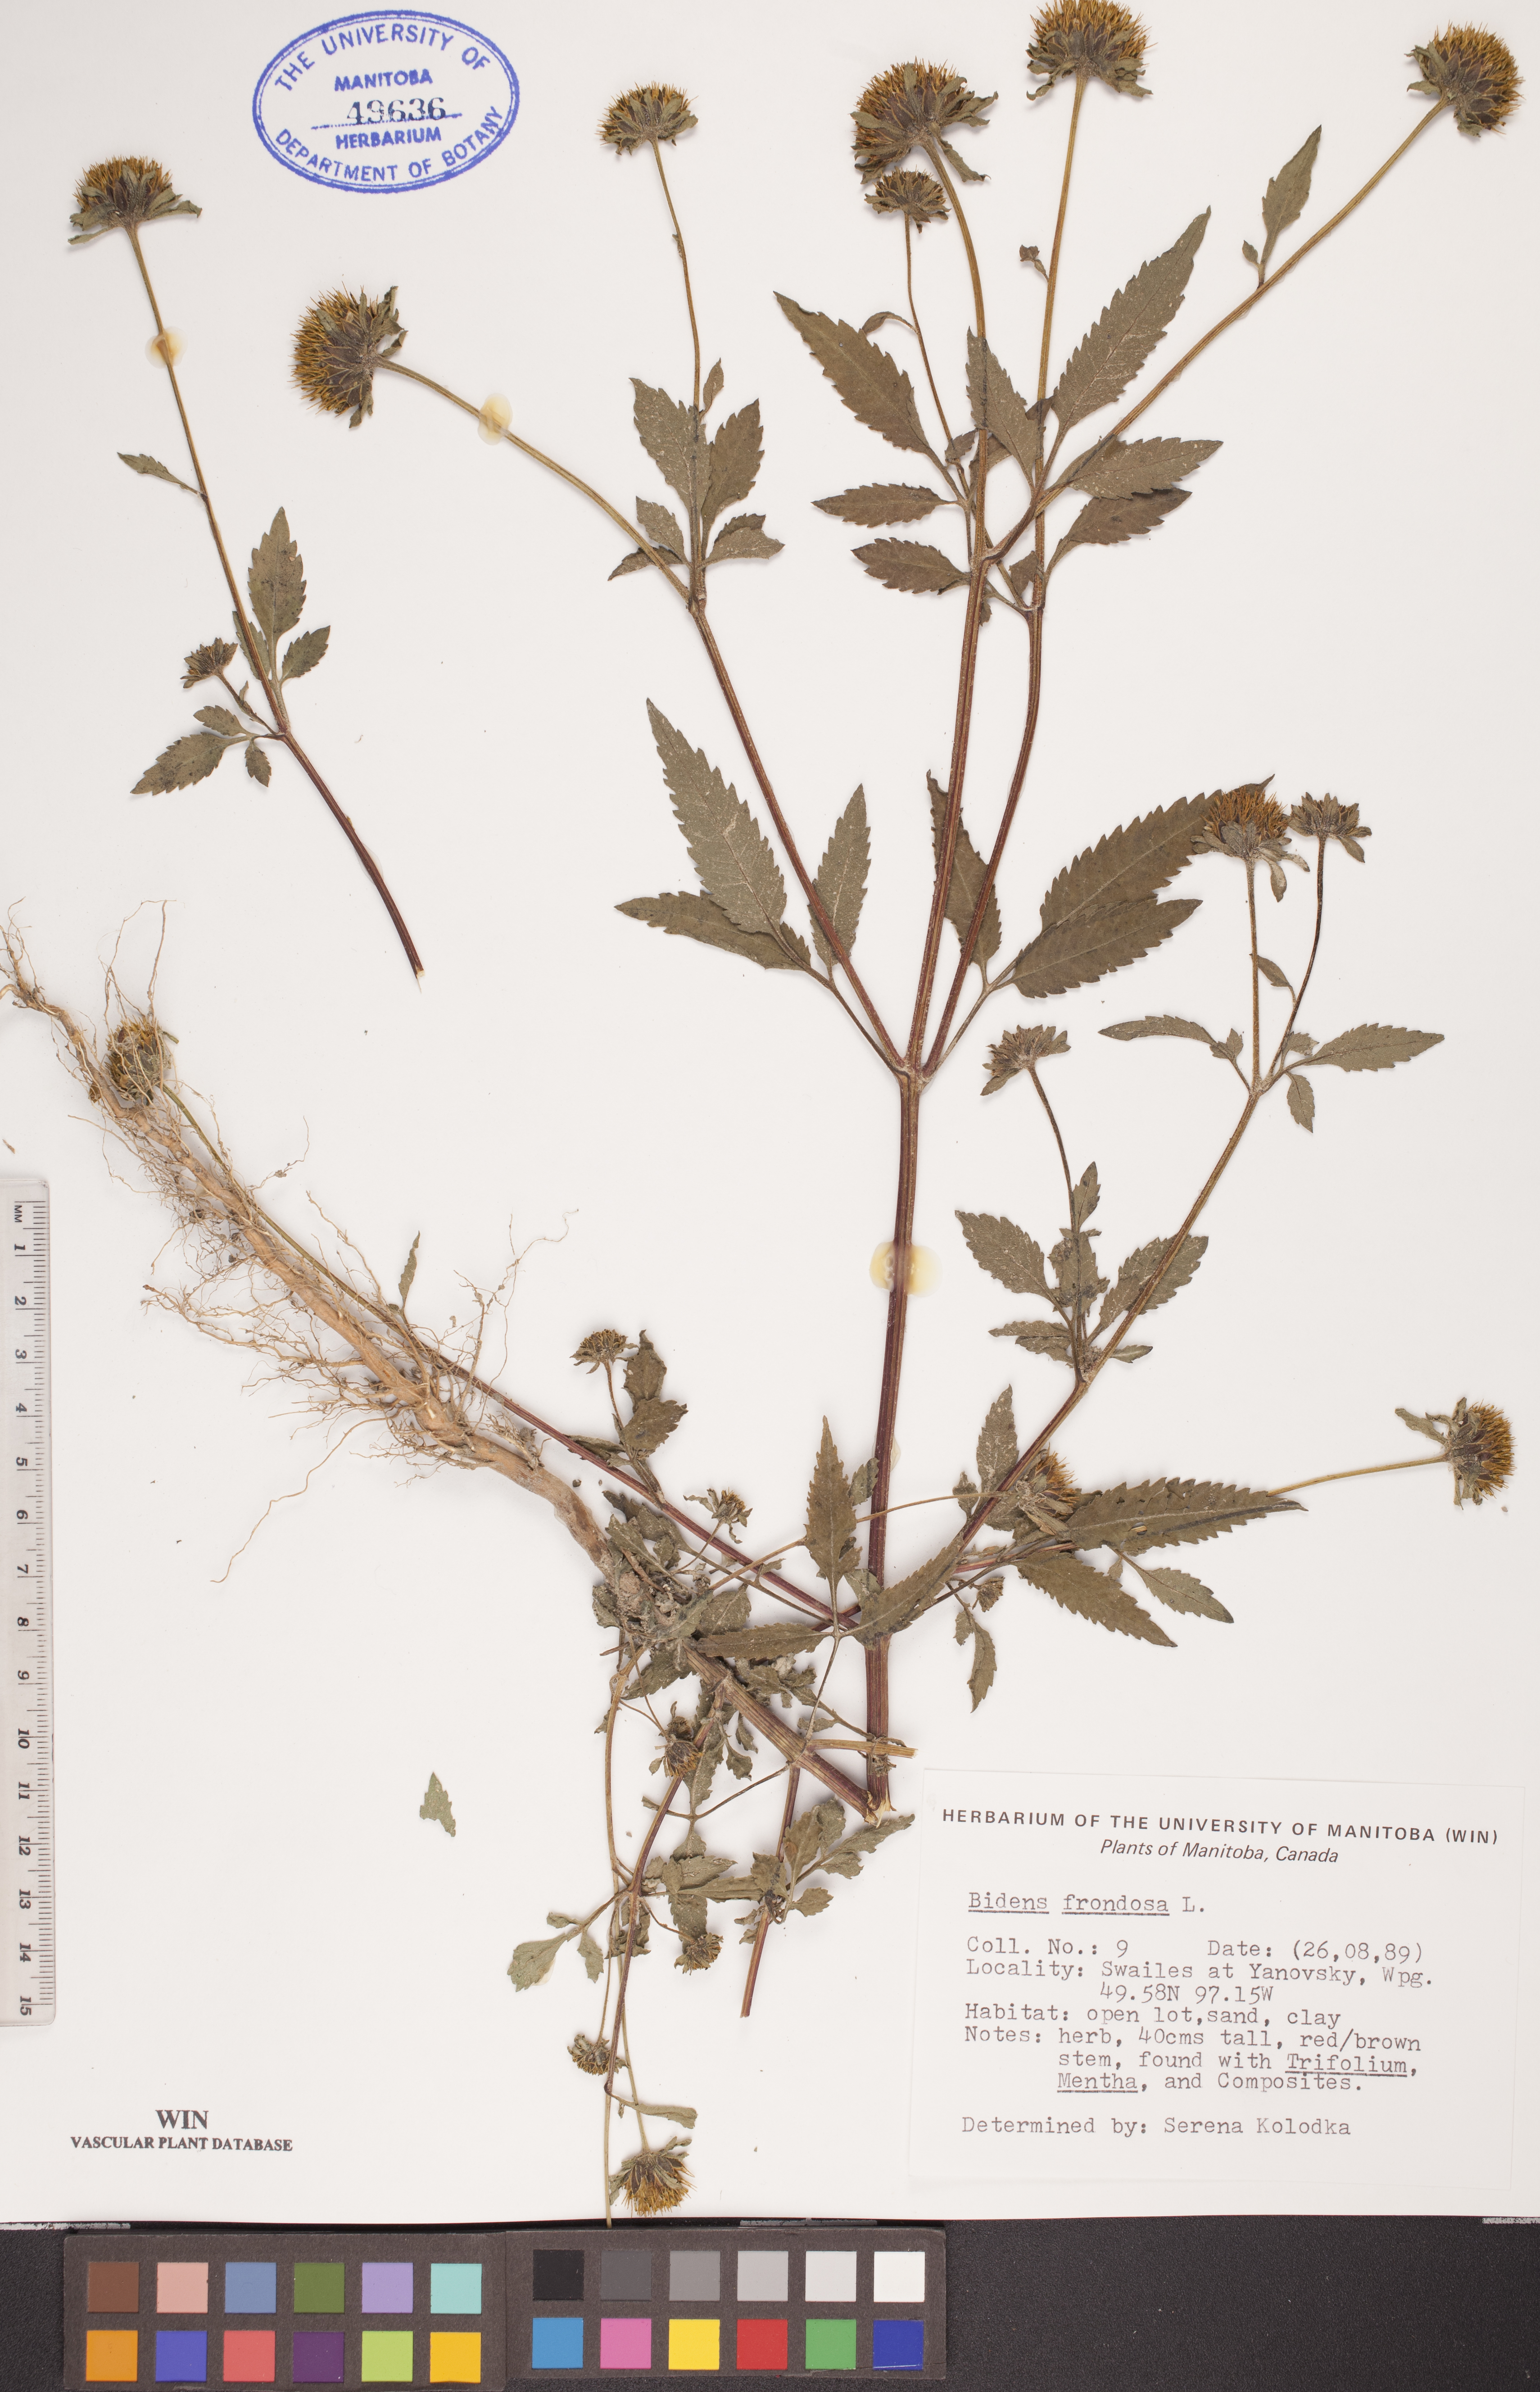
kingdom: Plantae
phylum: Tracheophyta
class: Magnoliopsida
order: Asterales
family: Asteraceae
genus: Bidens
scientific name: Bidens frondosa
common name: Beggarticks
